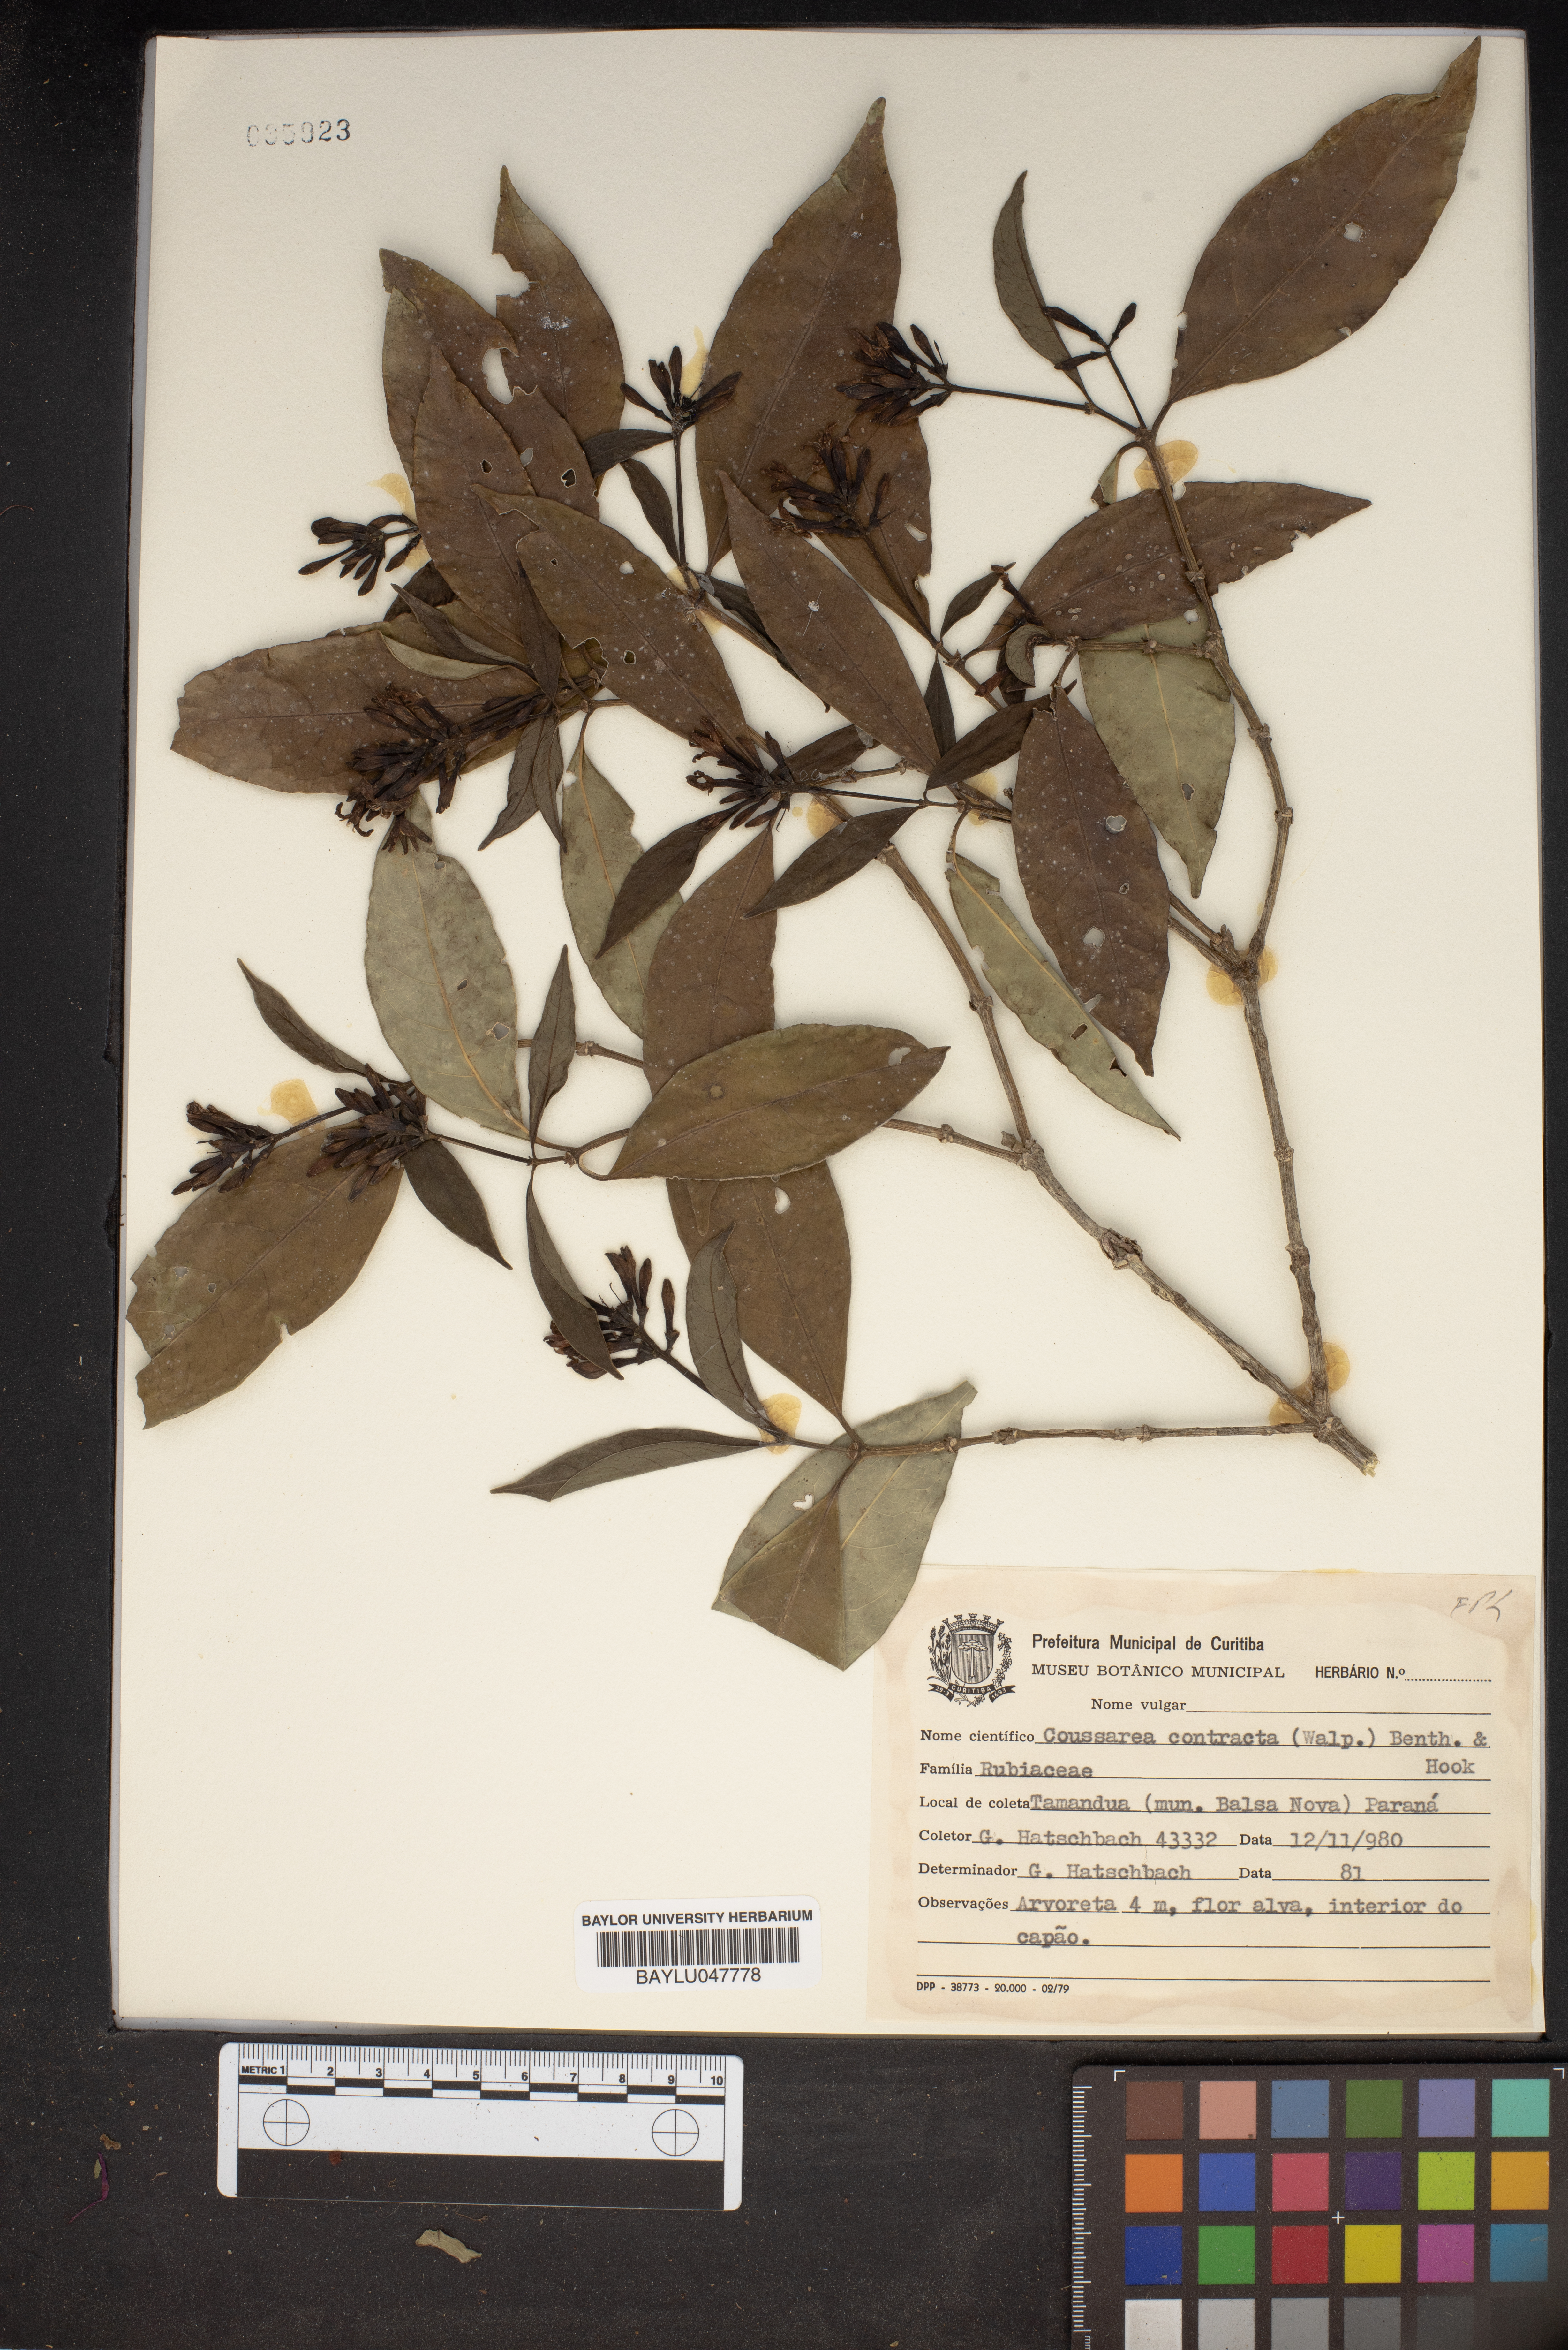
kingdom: Plantae
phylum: Tracheophyta
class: Magnoliopsida
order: Gentianales
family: Rubiaceae
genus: Coussarea
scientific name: Coussarea contracta
